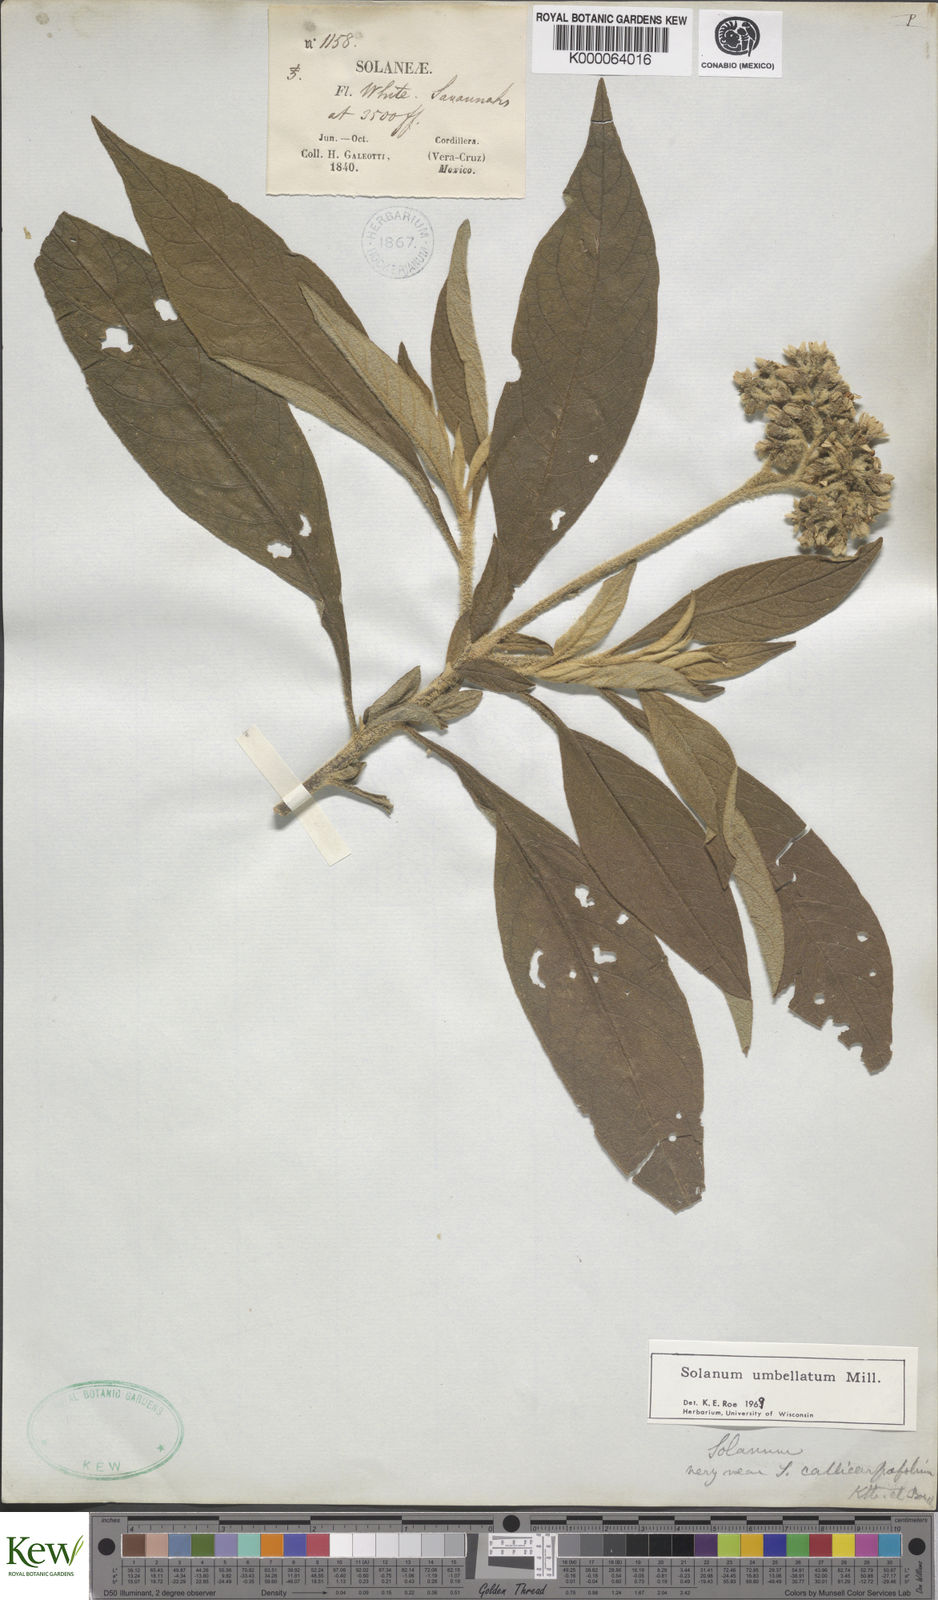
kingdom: Plantae
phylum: Tracheophyta
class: Magnoliopsida
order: Solanales
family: Solanaceae
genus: Solanum
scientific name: Solanum umbellatum
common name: Nightshade
